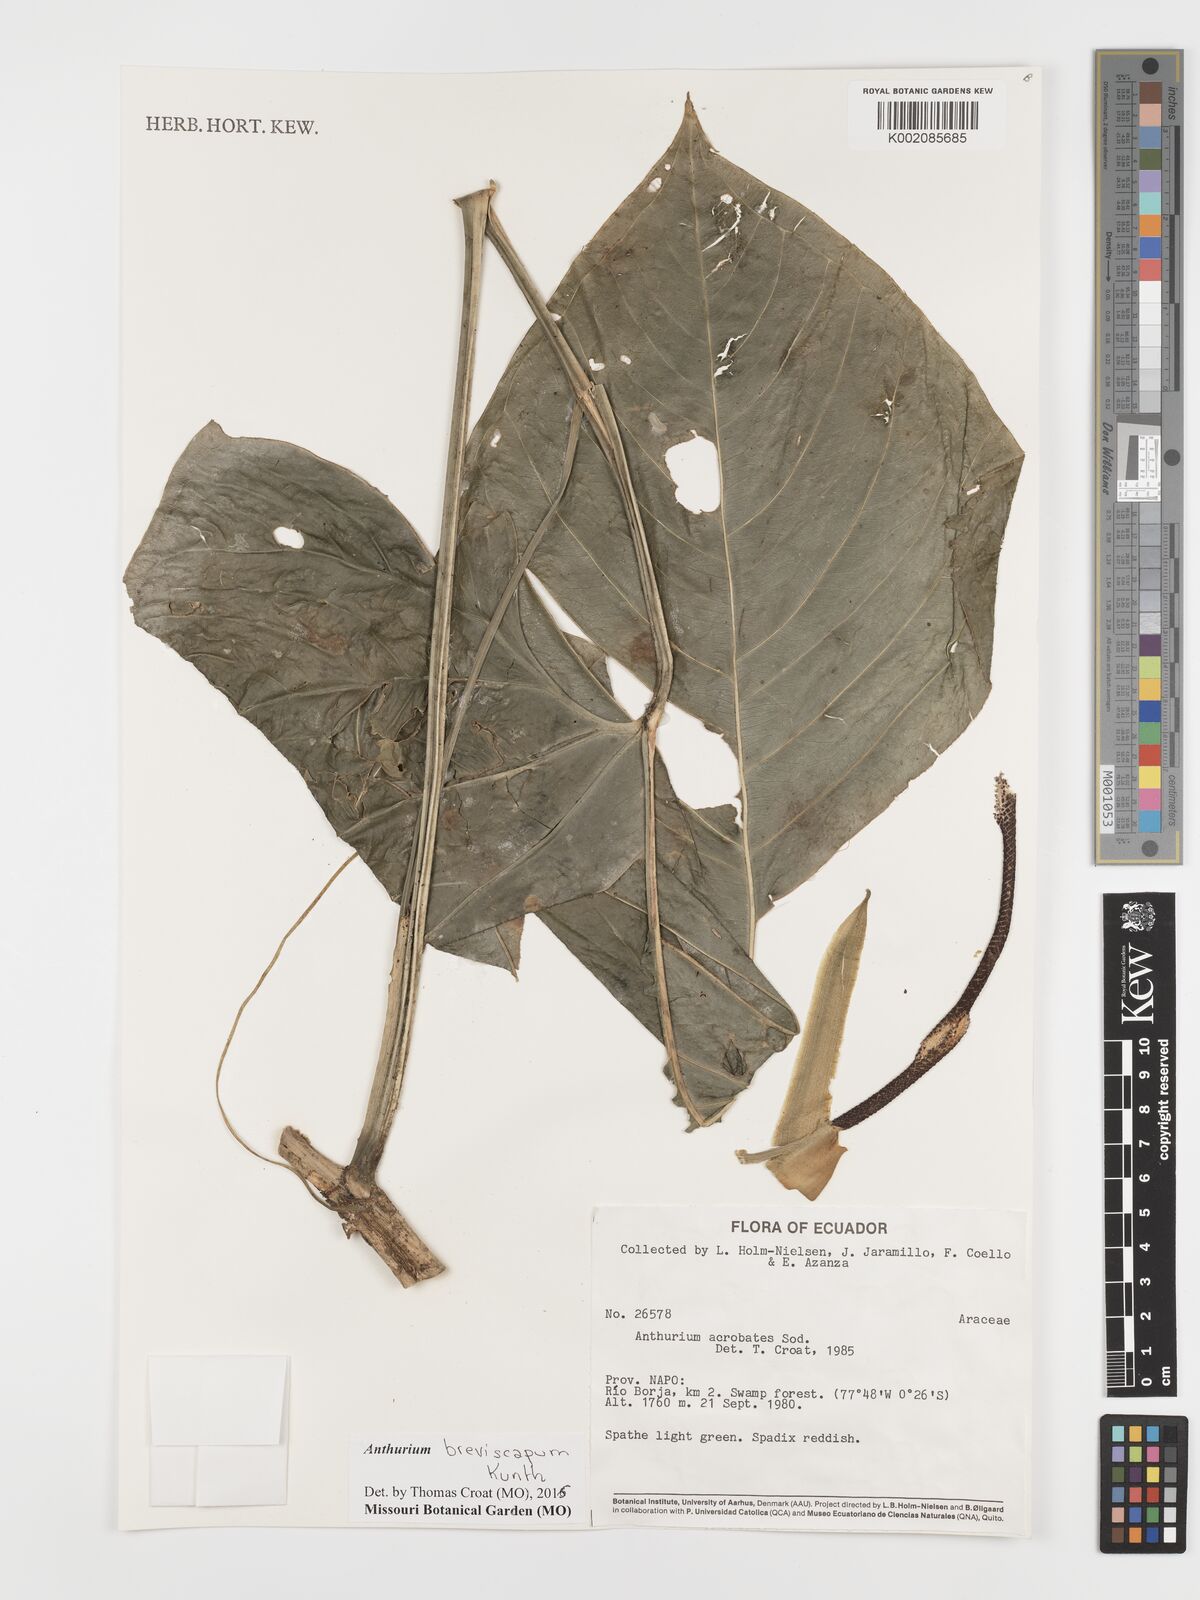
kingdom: Plantae
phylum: Tracheophyta
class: Liliopsida
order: Alismatales
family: Araceae
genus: Anthurium
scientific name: Anthurium breviscapum
